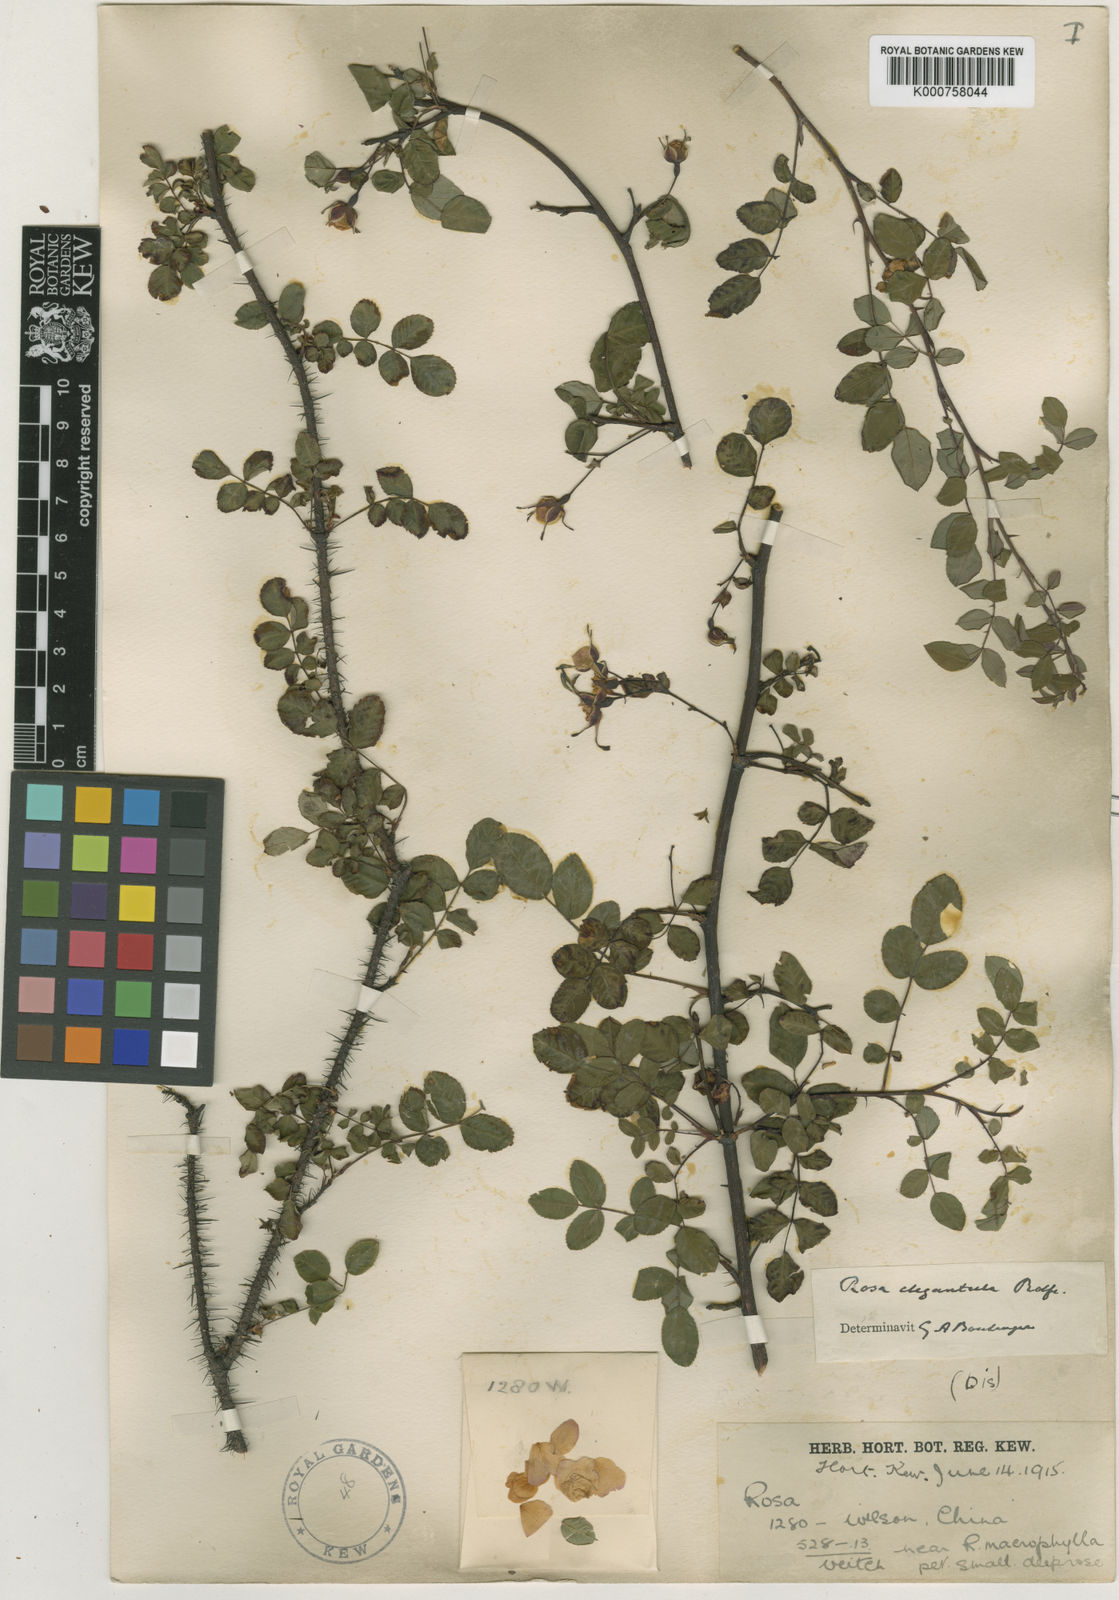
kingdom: Plantae
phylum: Tracheophyta
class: Magnoliopsida
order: Rosales
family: Rosaceae
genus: Rosa
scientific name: Rosa persetosa
